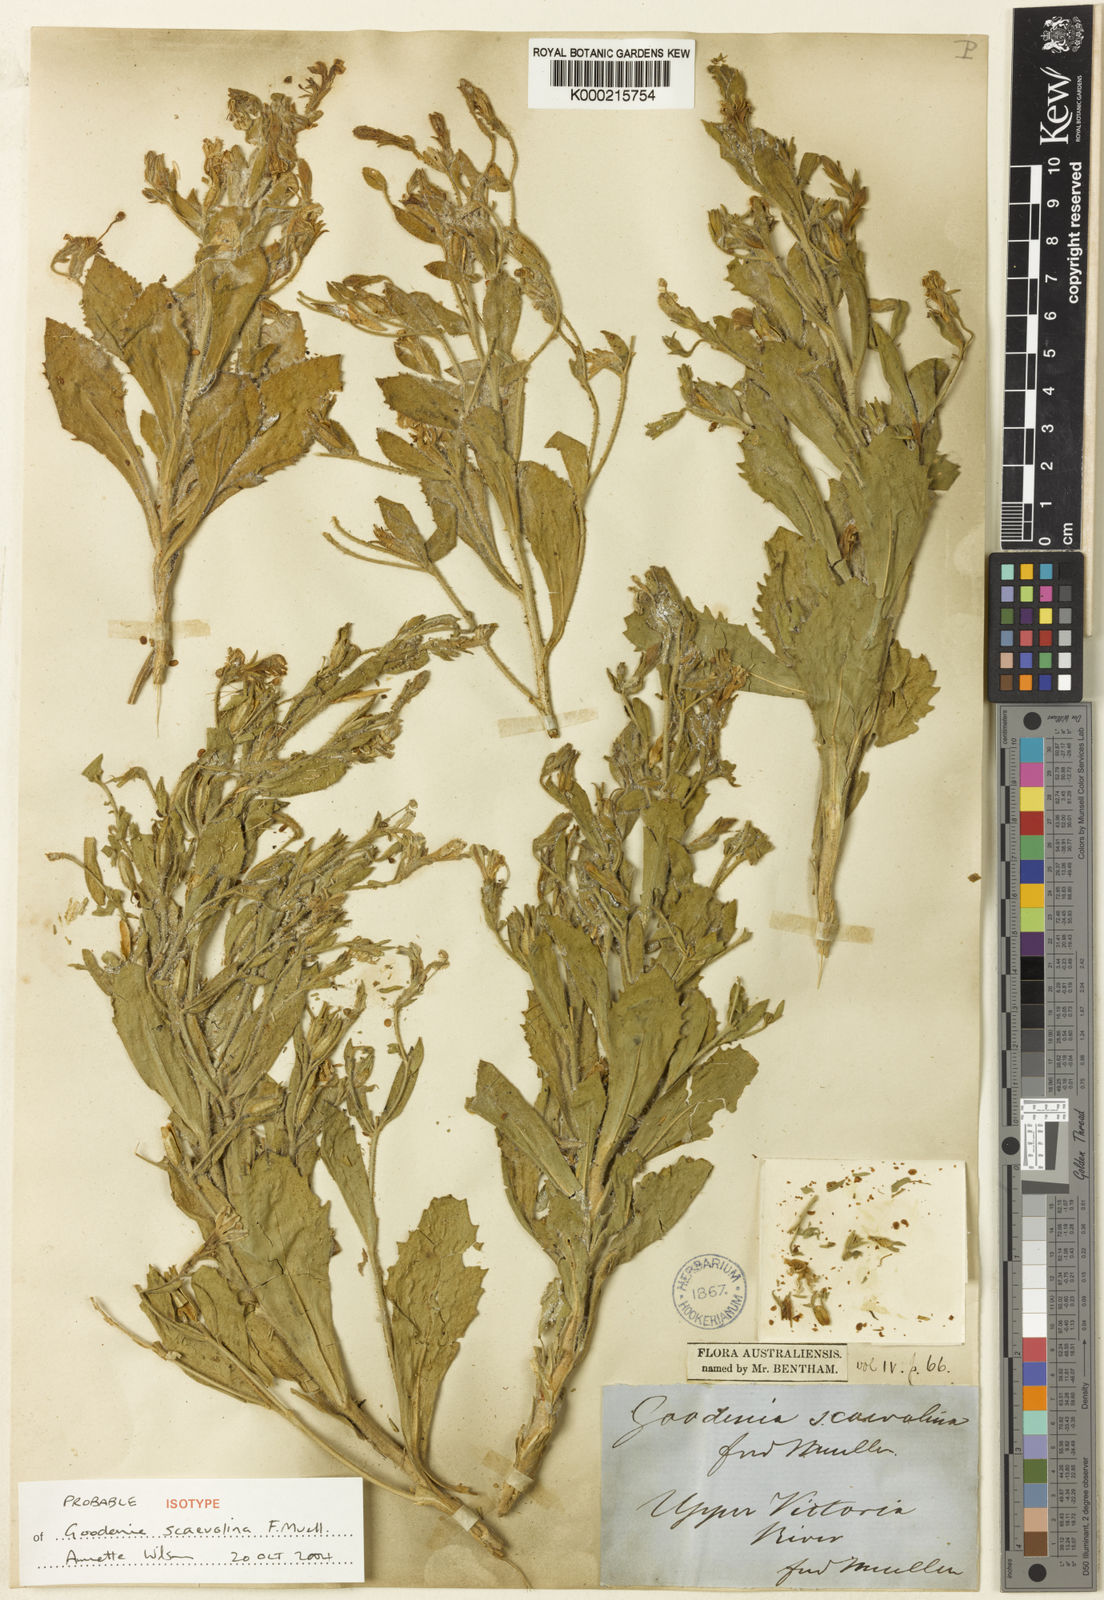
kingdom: Plantae
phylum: Tracheophyta
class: Magnoliopsida
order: Asterales
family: Goodeniaceae
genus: Goodenia
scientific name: Goodenia scaevolina
